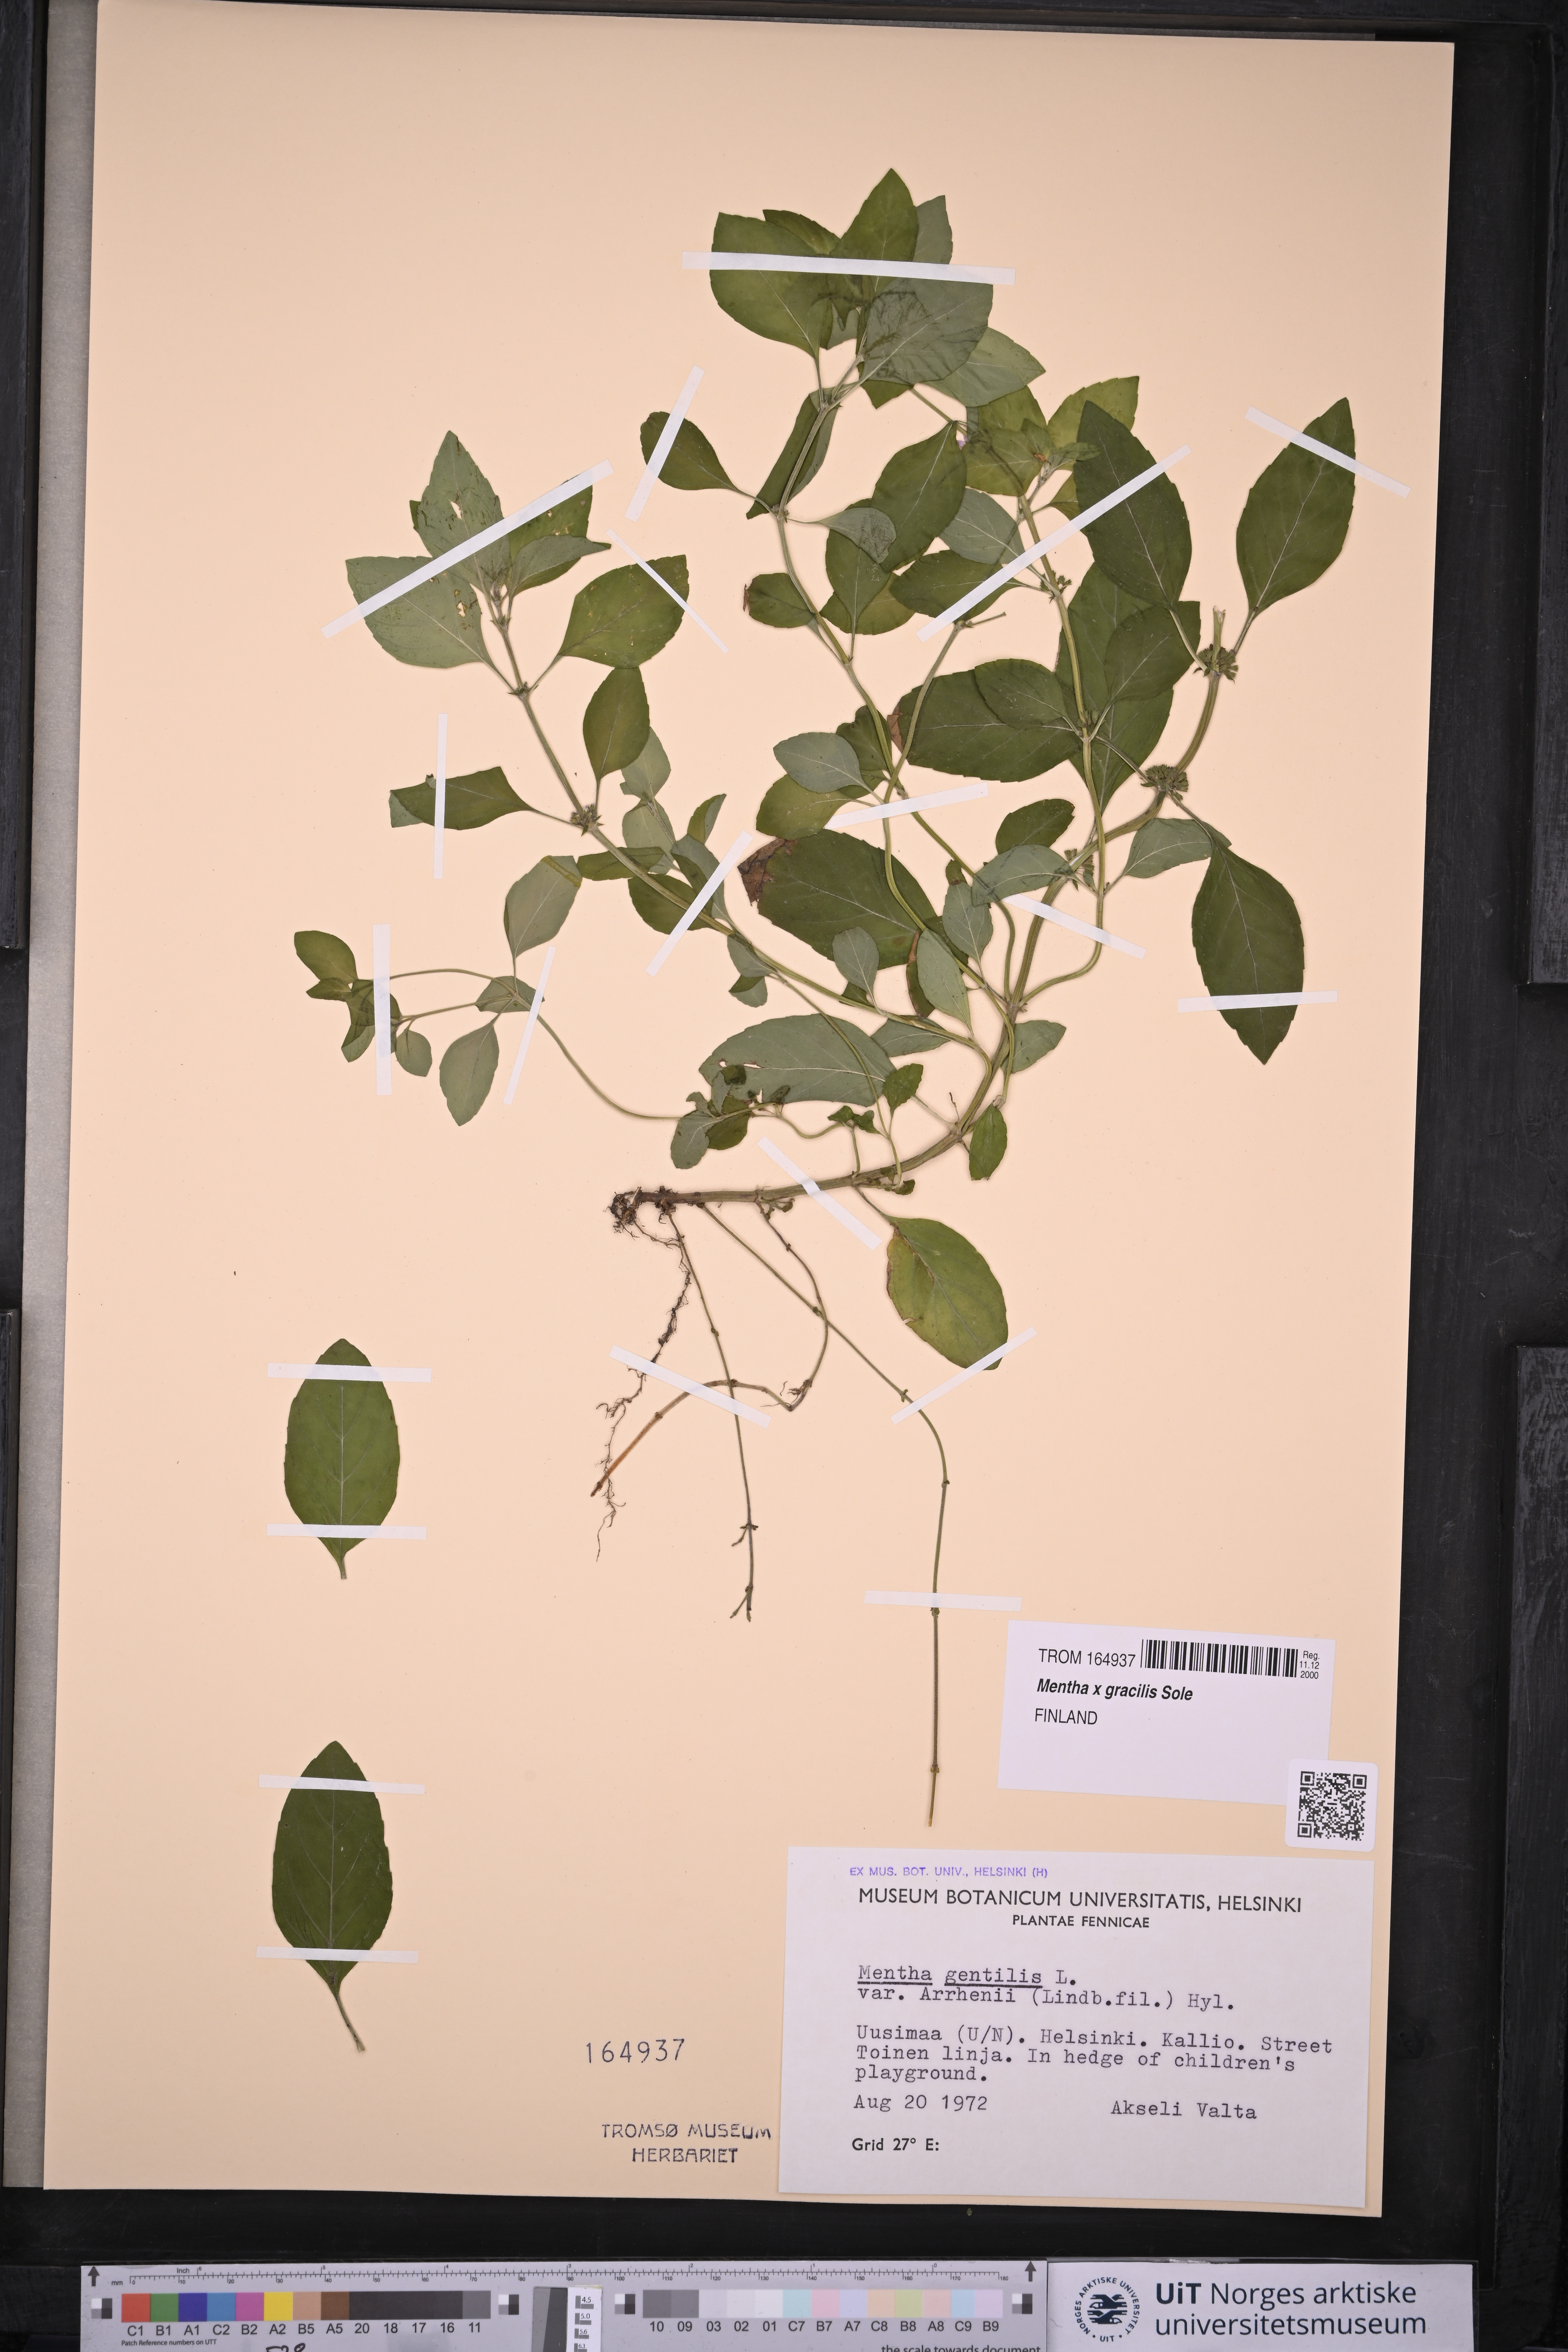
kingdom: Plantae
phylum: Tracheophyta
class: Magnoliopsida
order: Lamiales
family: Lamiaceae
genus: Mentha
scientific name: Mentha arvensis
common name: Corn mint
